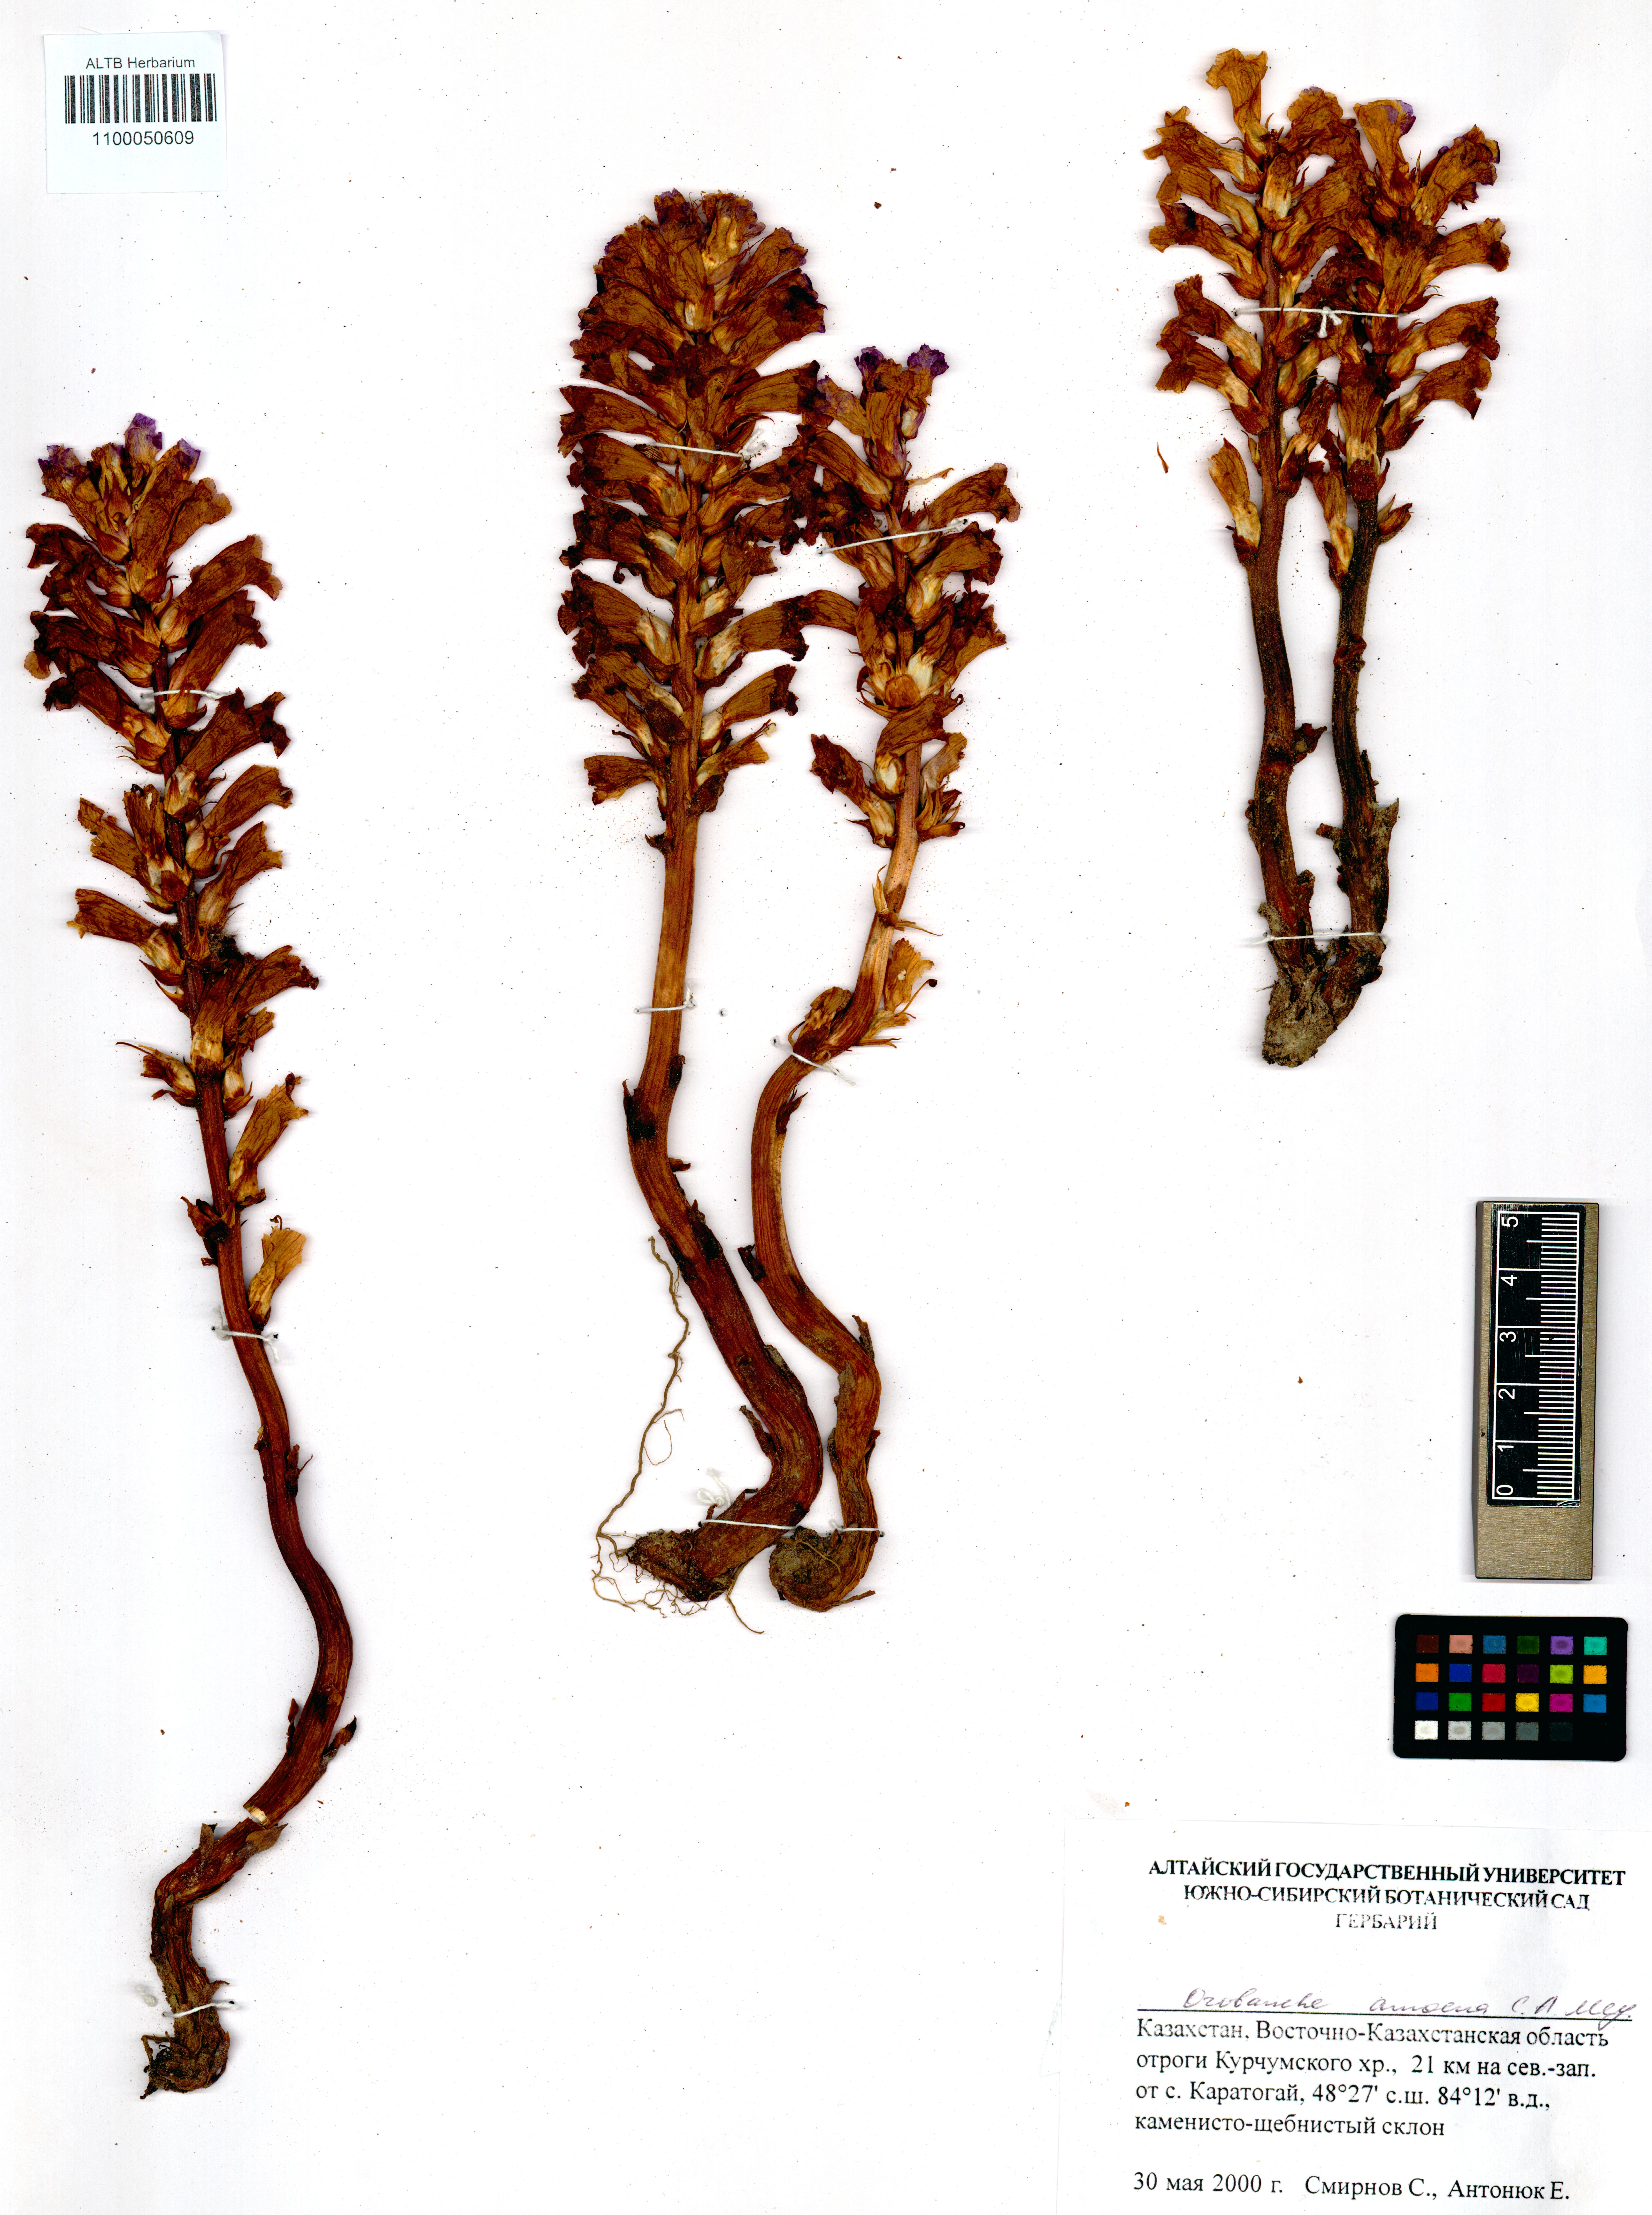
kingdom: Plantae
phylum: Tracheophyta
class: Magnoliopsida
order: Lamiales
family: Orobanchaceae
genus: Orobanche
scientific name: Orobanche amoena
